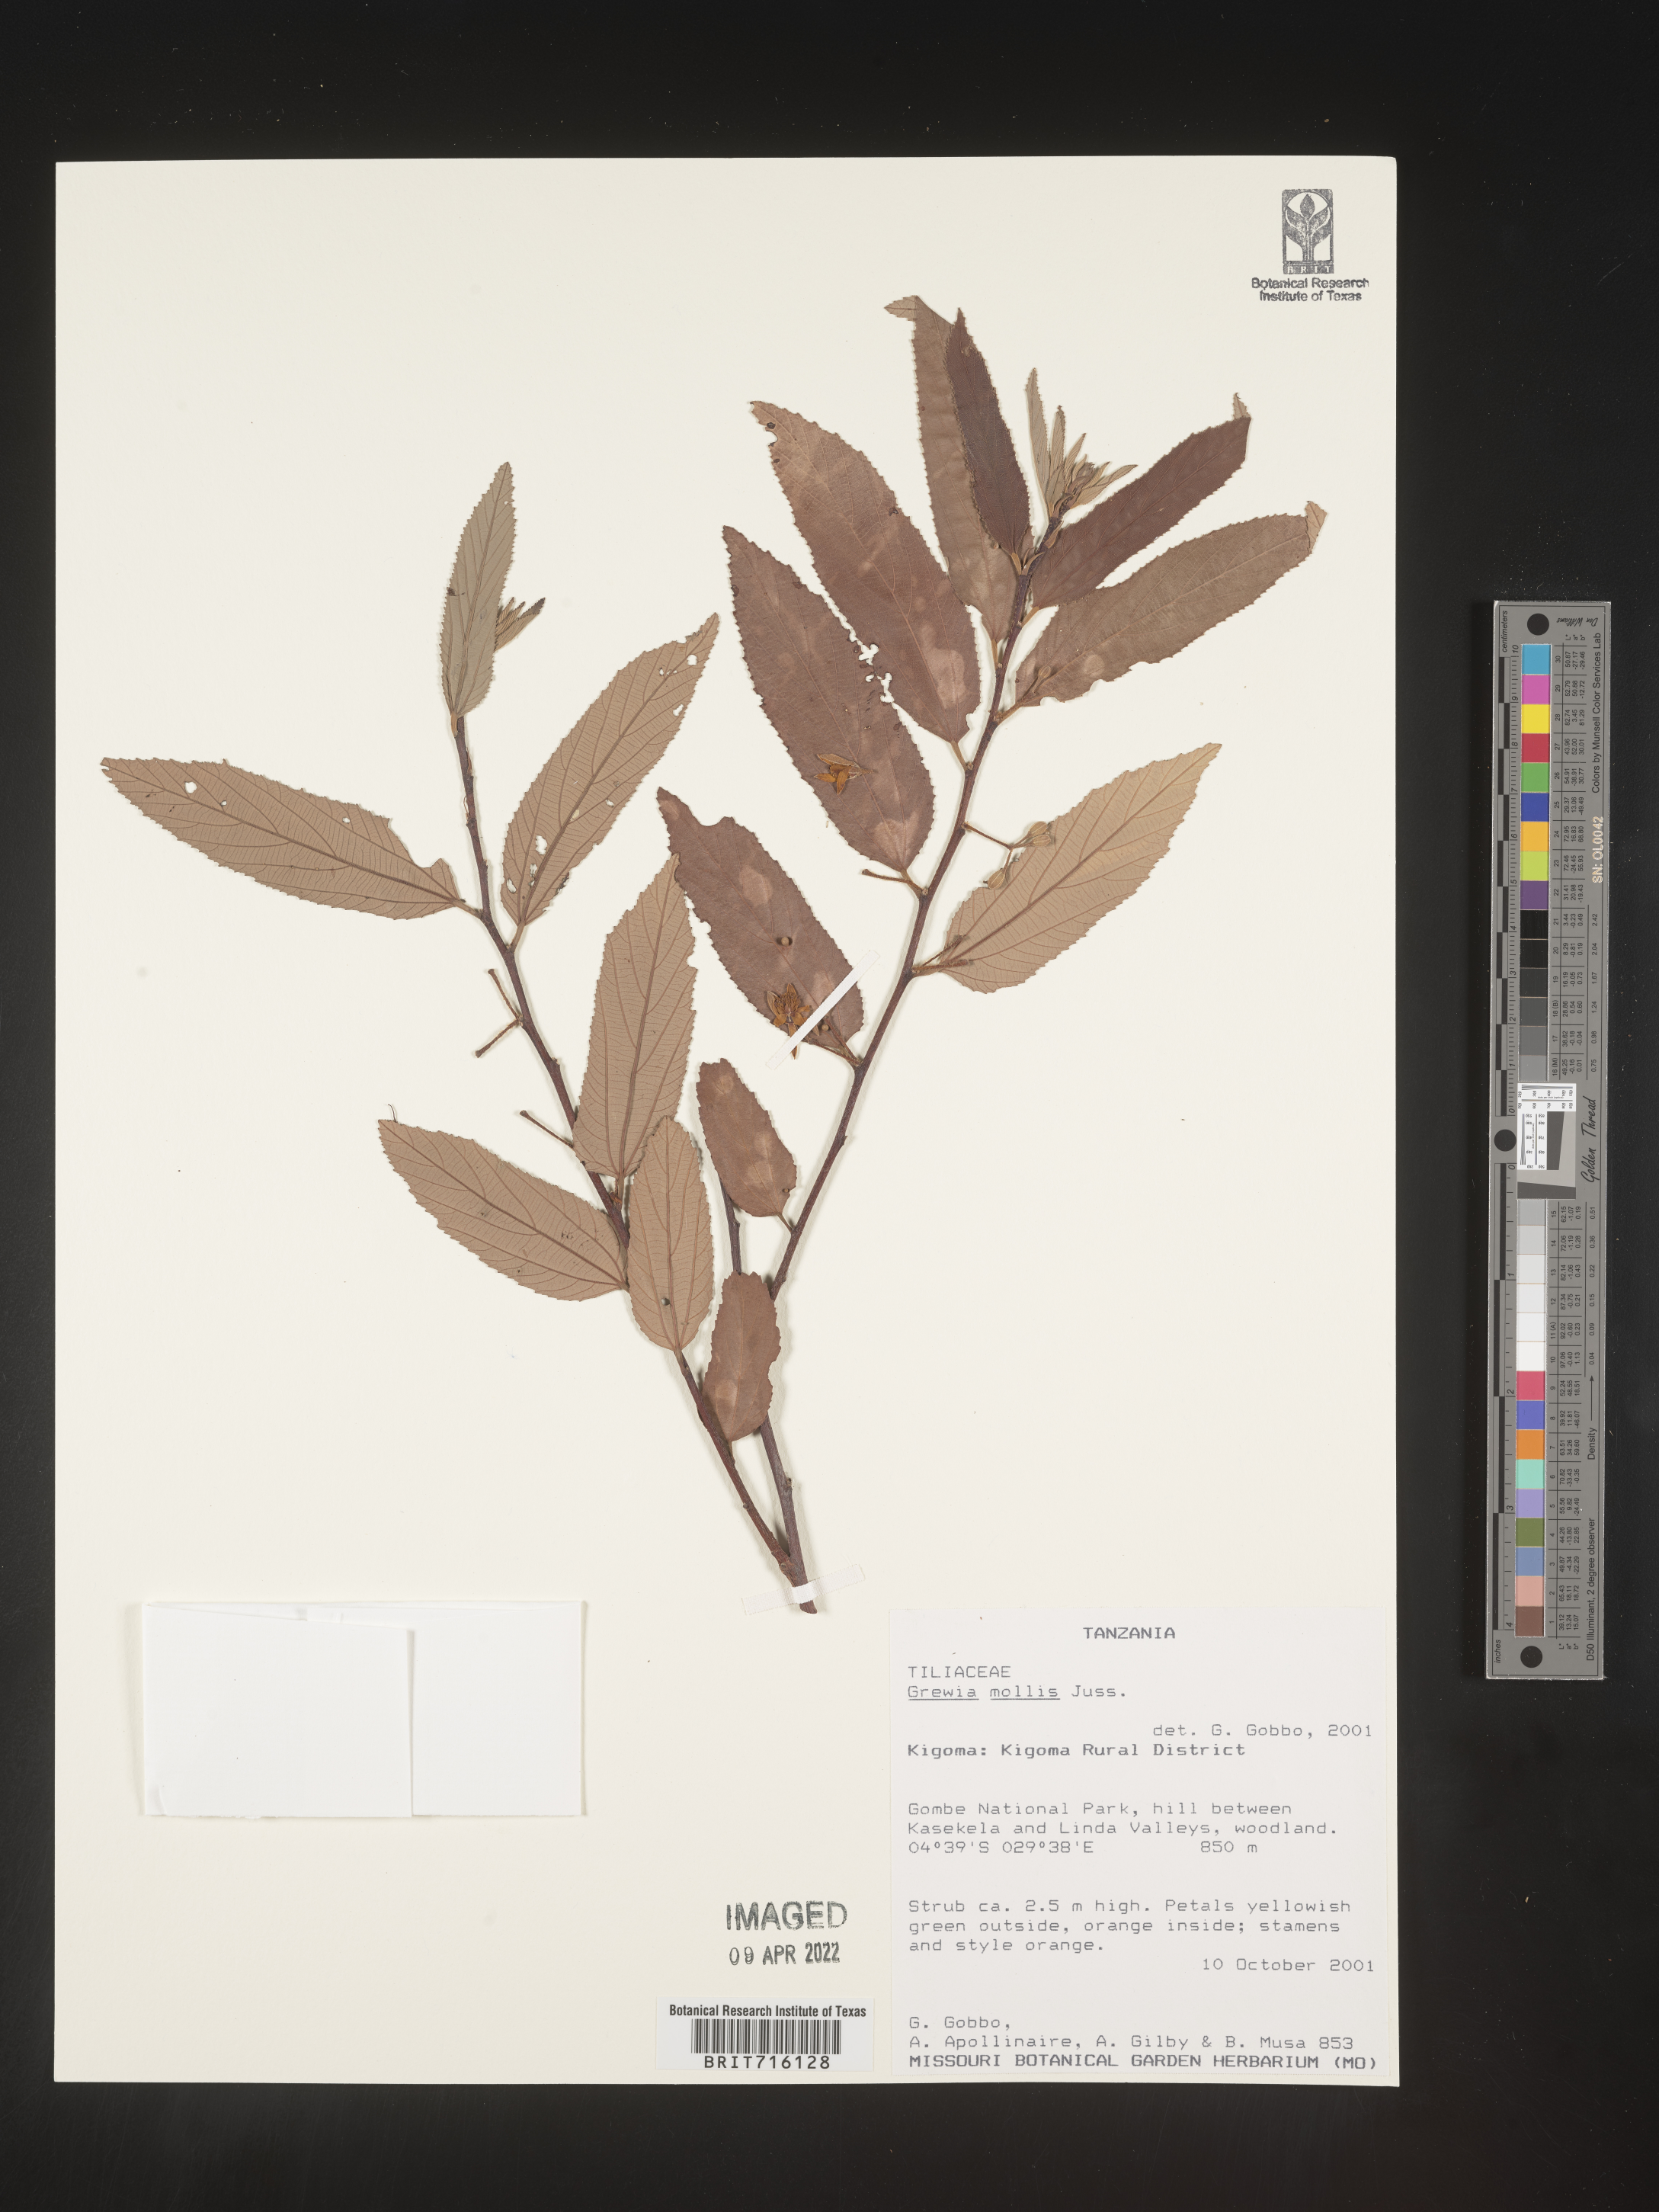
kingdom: Plantae
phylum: Tracheophyta
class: Magnoliopsida
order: Malvales
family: Malvaceae
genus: Grewia
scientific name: Grewia
